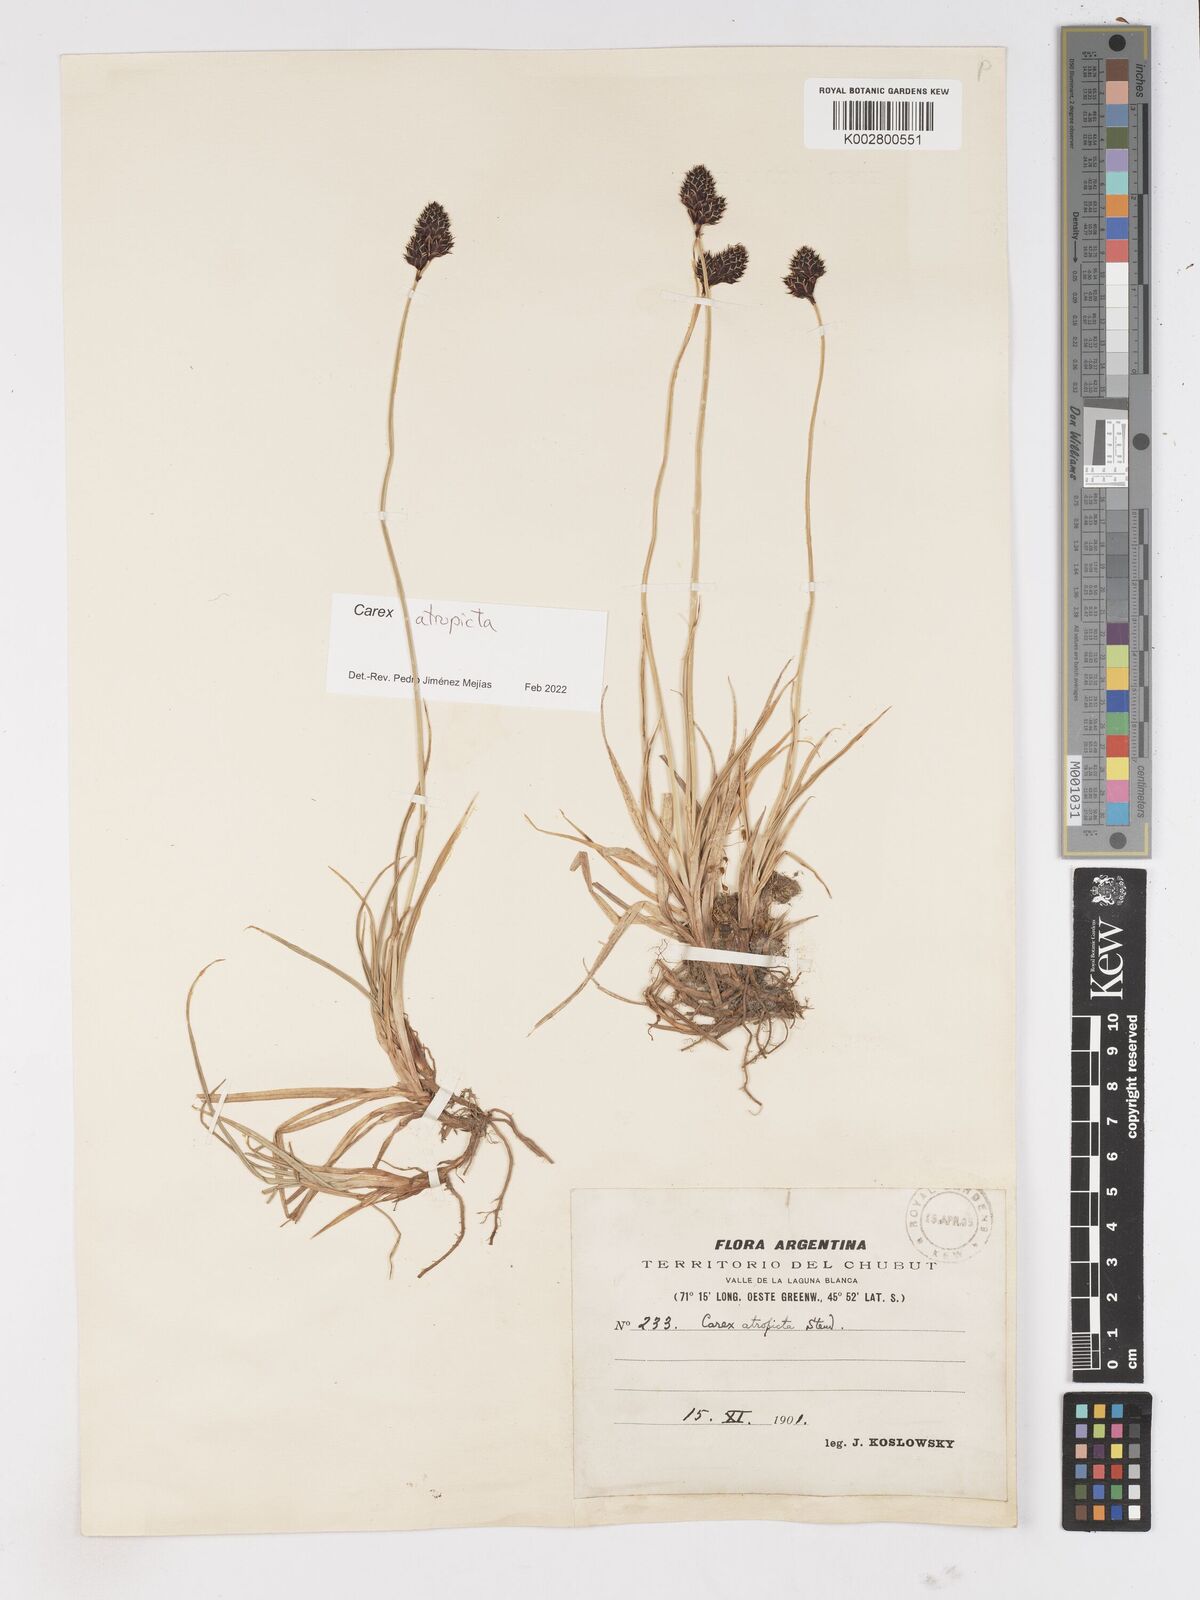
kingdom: Plantae
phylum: Tracheophyta
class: Liliopsida
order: Poales
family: Cyperaceae
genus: Carex
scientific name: Carex atropicta
